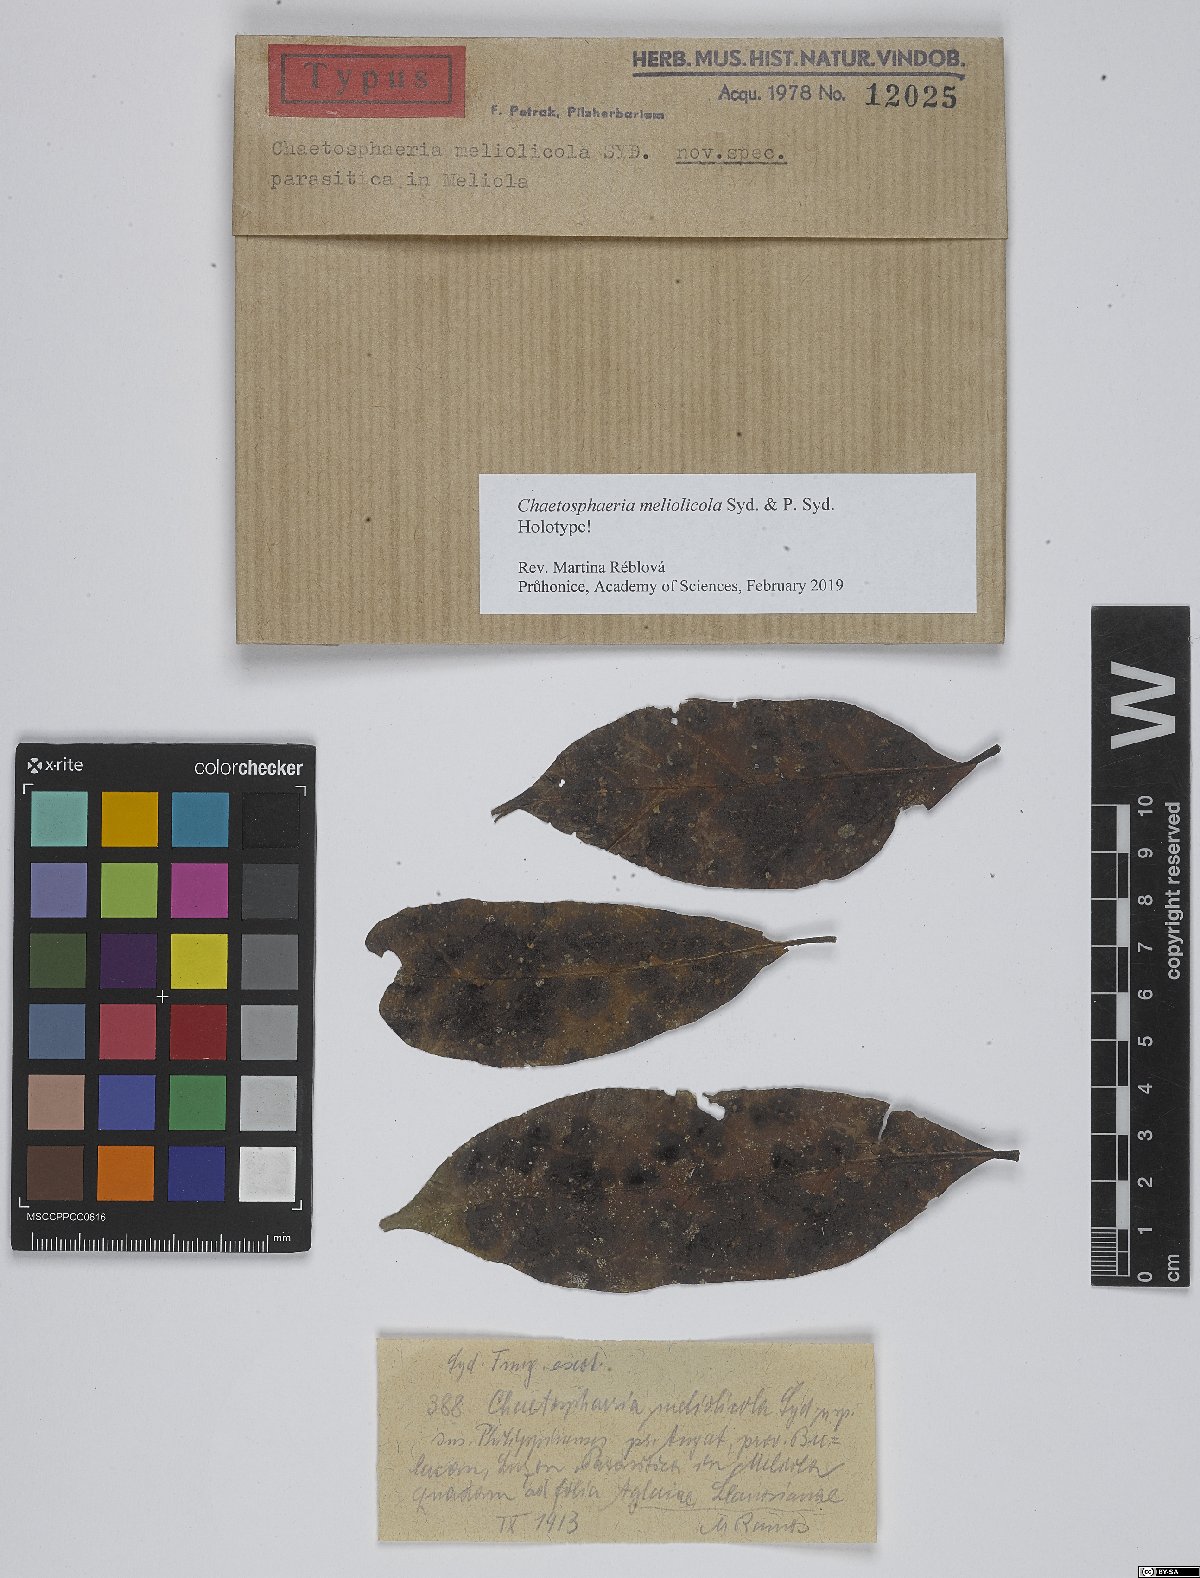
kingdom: Fungi
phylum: Ascomycota
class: Sordariomycetes
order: Chaetosphaeriales
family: Chaetosphaeriaceae
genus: Chaetosphaeria
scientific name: Chaetosphaeria meliolicola
